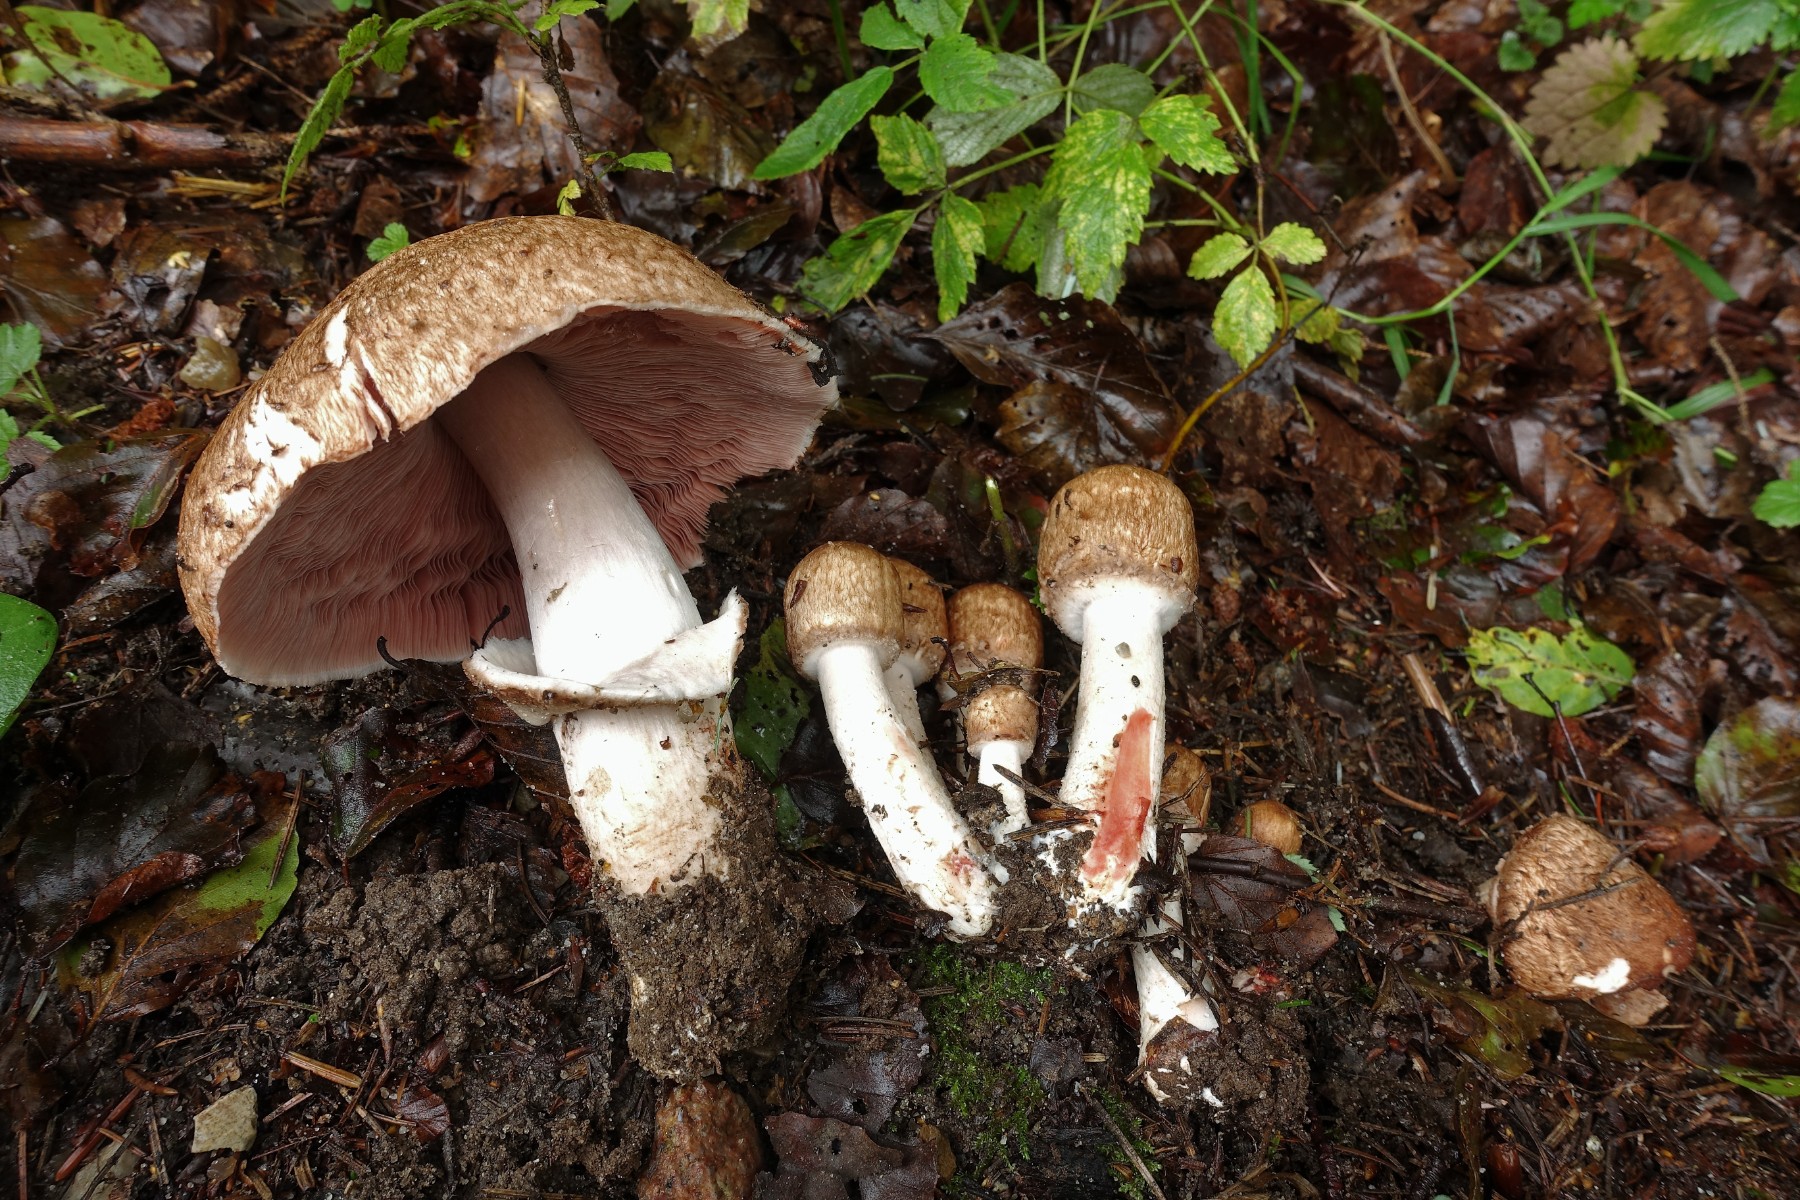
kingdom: Fungi
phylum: Basidiomycota
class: Agaricomycetes
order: Agaricales
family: Agaricaceae
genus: Agaricus
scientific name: Agaricus langei
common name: stor blod-champignon
